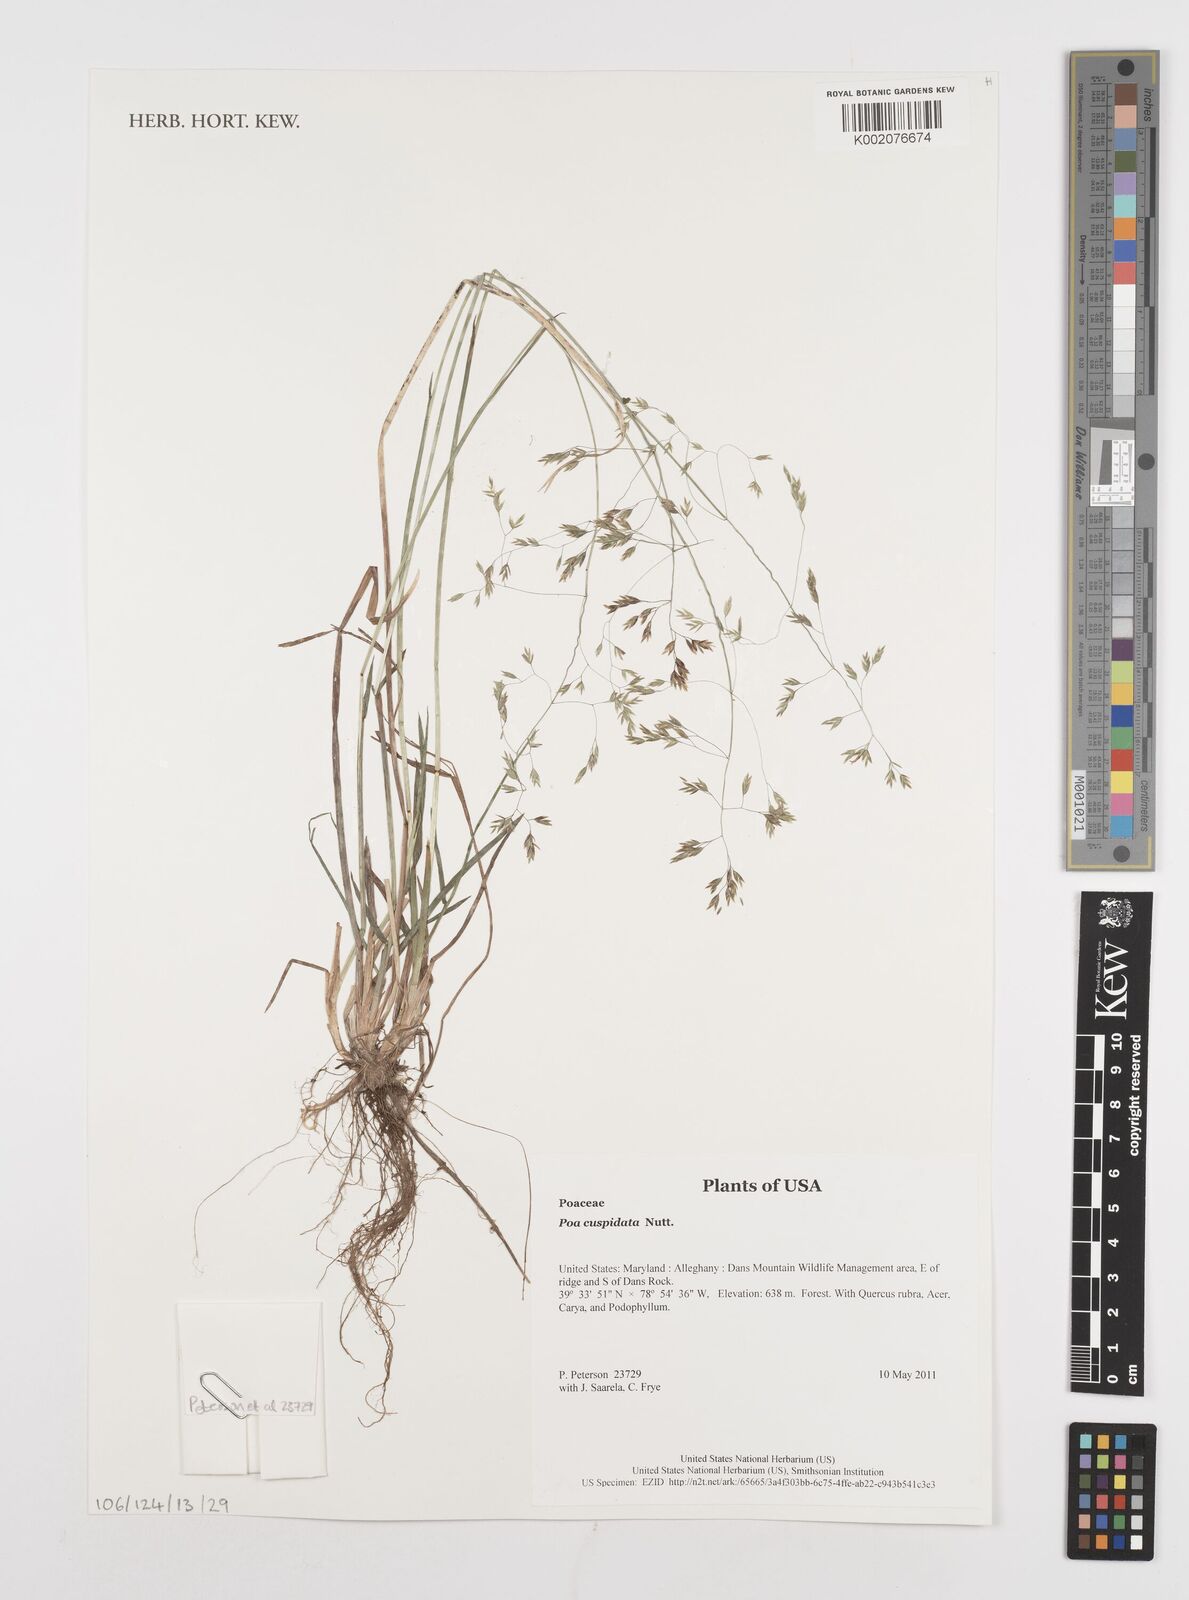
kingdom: Plantae
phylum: Tracheophyta
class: Liliopsida
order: Poales
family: Poaceae
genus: Poa
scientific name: Poa cuspidata
